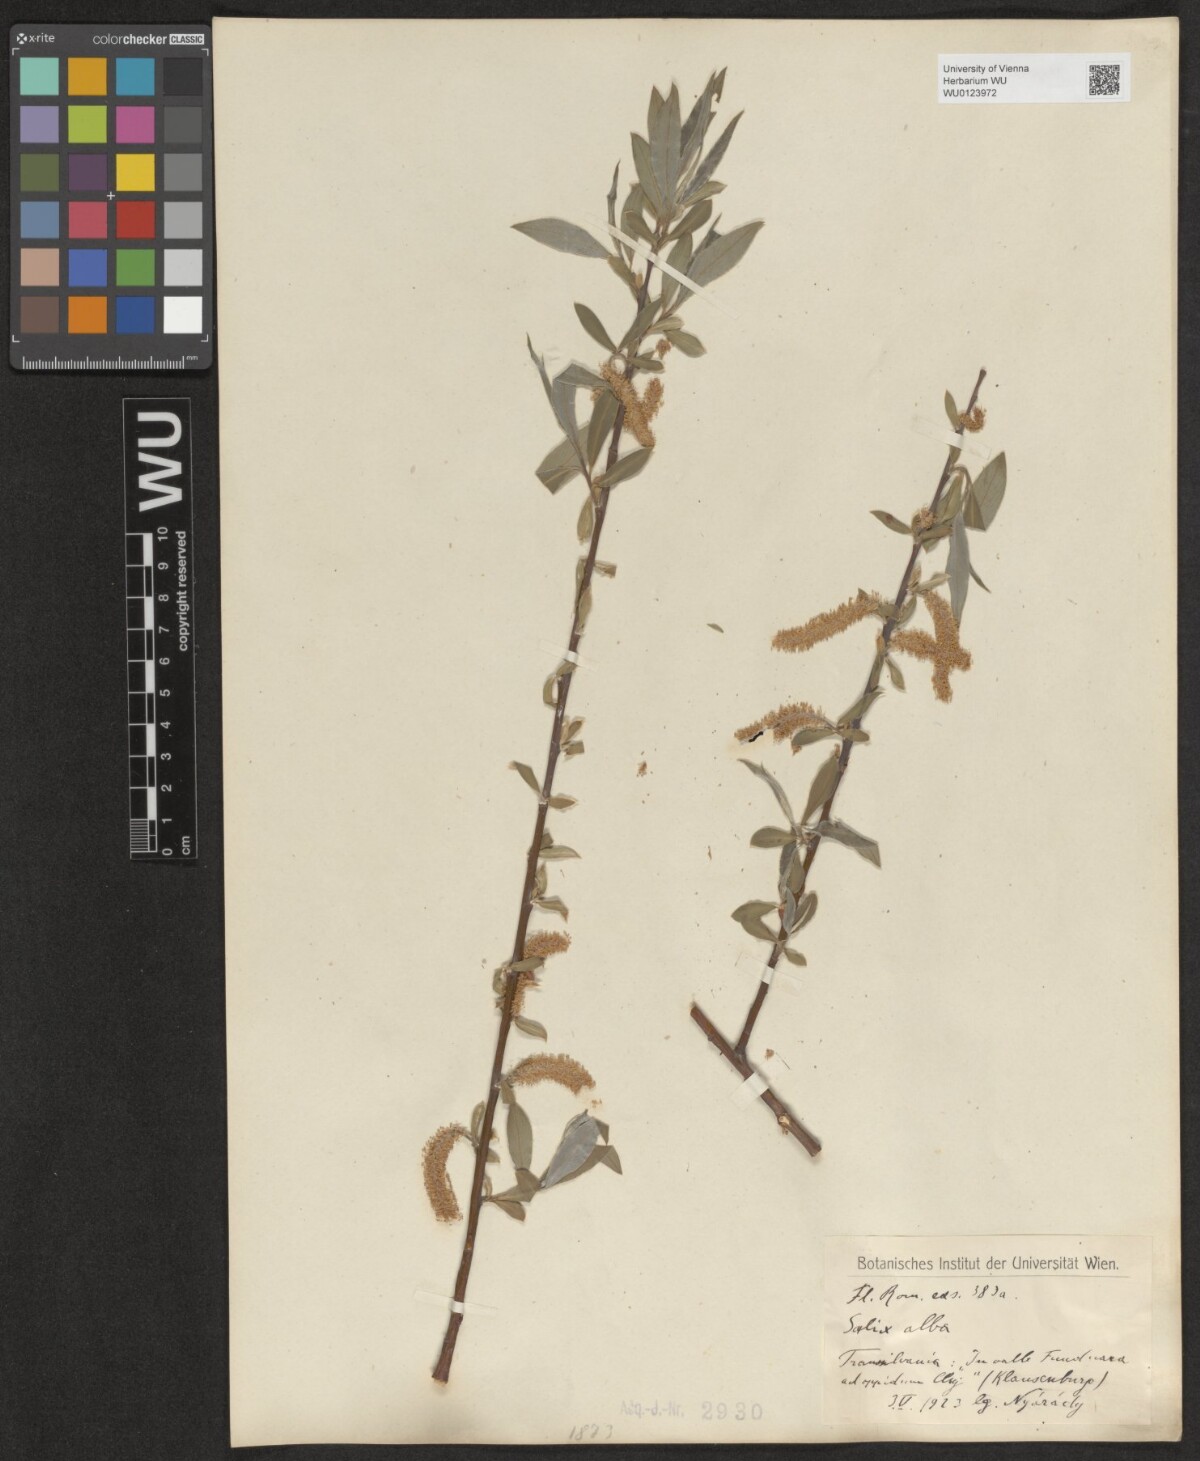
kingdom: Plantae
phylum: Tracheophyta
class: Magnoliopsida
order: Malpighiales
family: Salicaceae
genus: Salix
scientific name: Salix alba
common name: White willow
